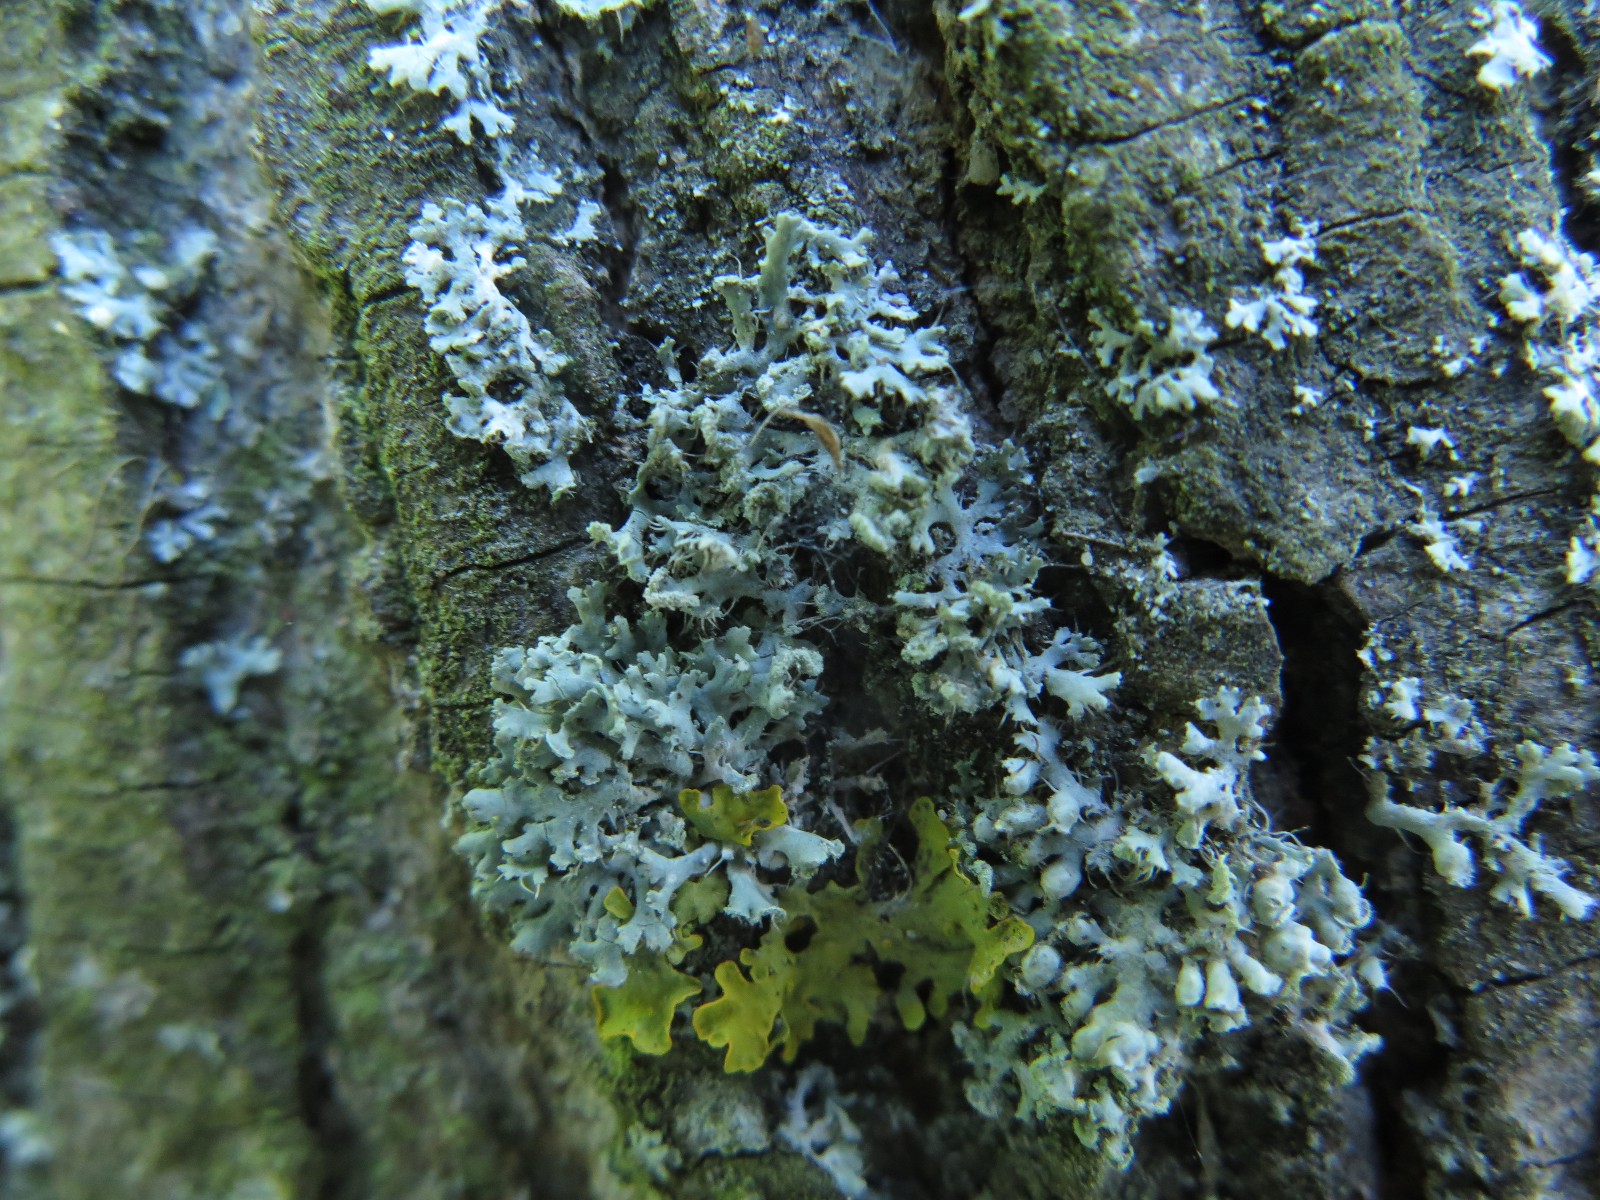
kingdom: Fungi
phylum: Ascomycota
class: Lecanoromycetes
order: Caliciales
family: Physciaceae
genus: Physcia
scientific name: Physcia adscendens
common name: hætte-rosetlav
